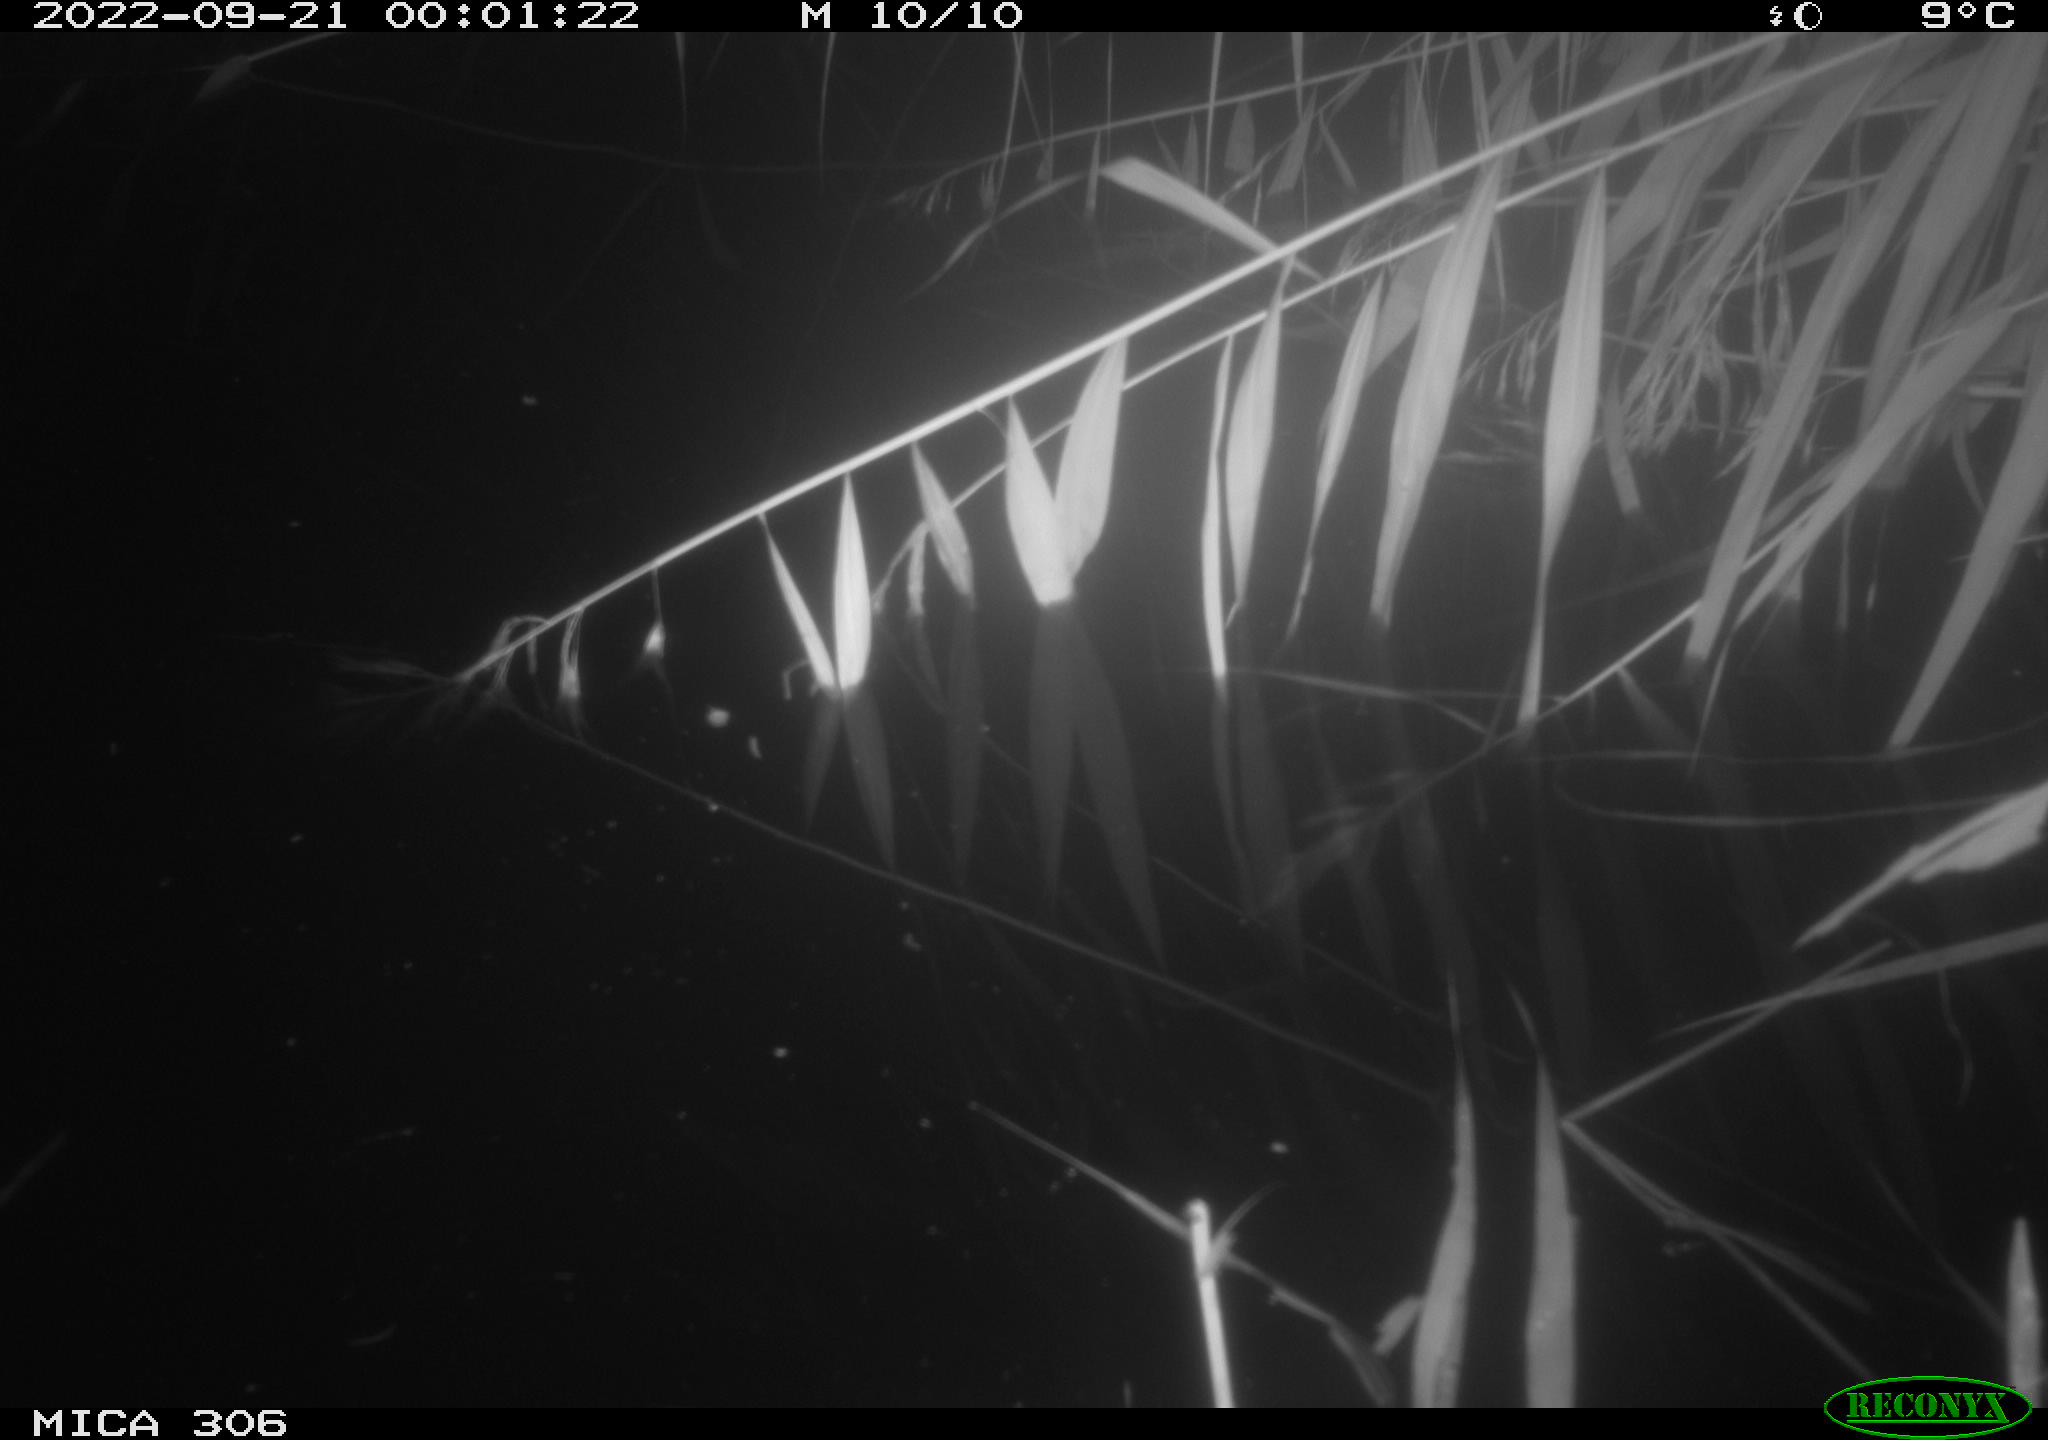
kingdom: Animalia
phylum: Chordata
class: Mammalia
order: Rodentia
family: Muridae
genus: Rattus
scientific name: Rattus norvegicus
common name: Brown rat
